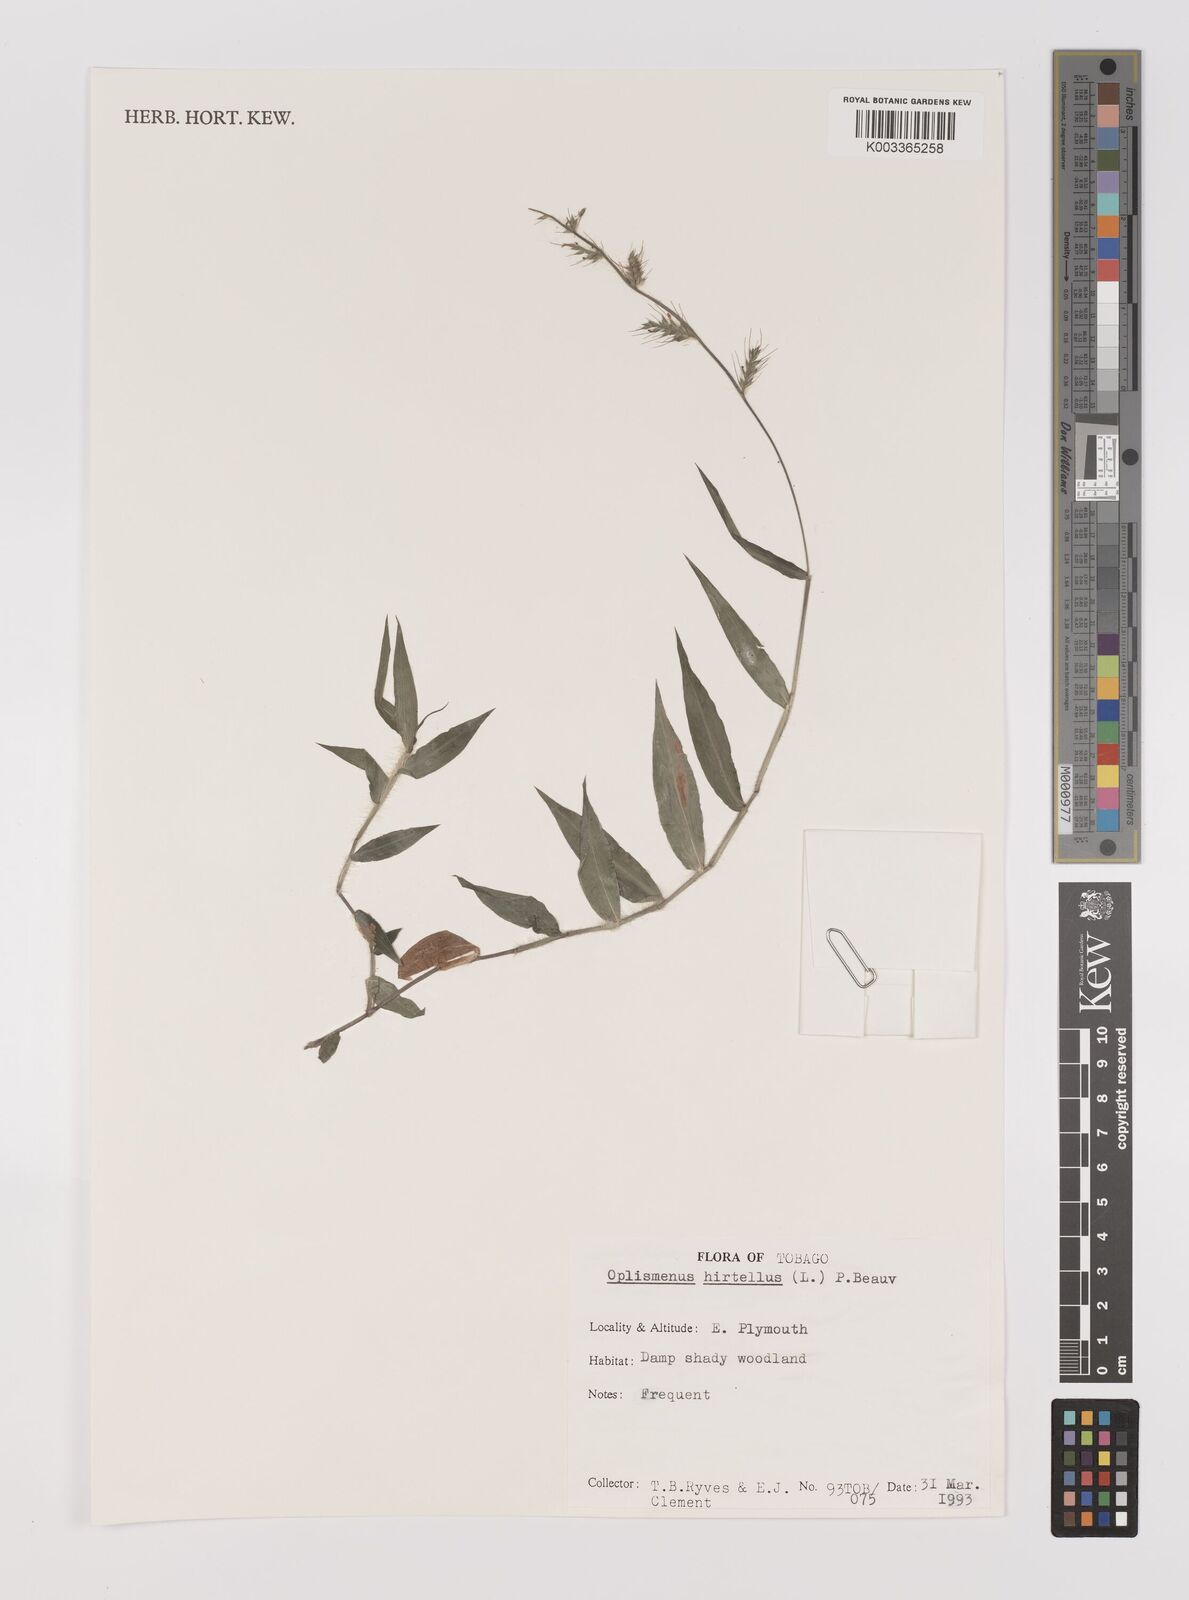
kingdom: Plantae
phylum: Tracheophyta
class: Liliopsida
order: Poales
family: Poaceae
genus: Oplismenus
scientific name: Oplismenus hirtellus
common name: Basketgrass
